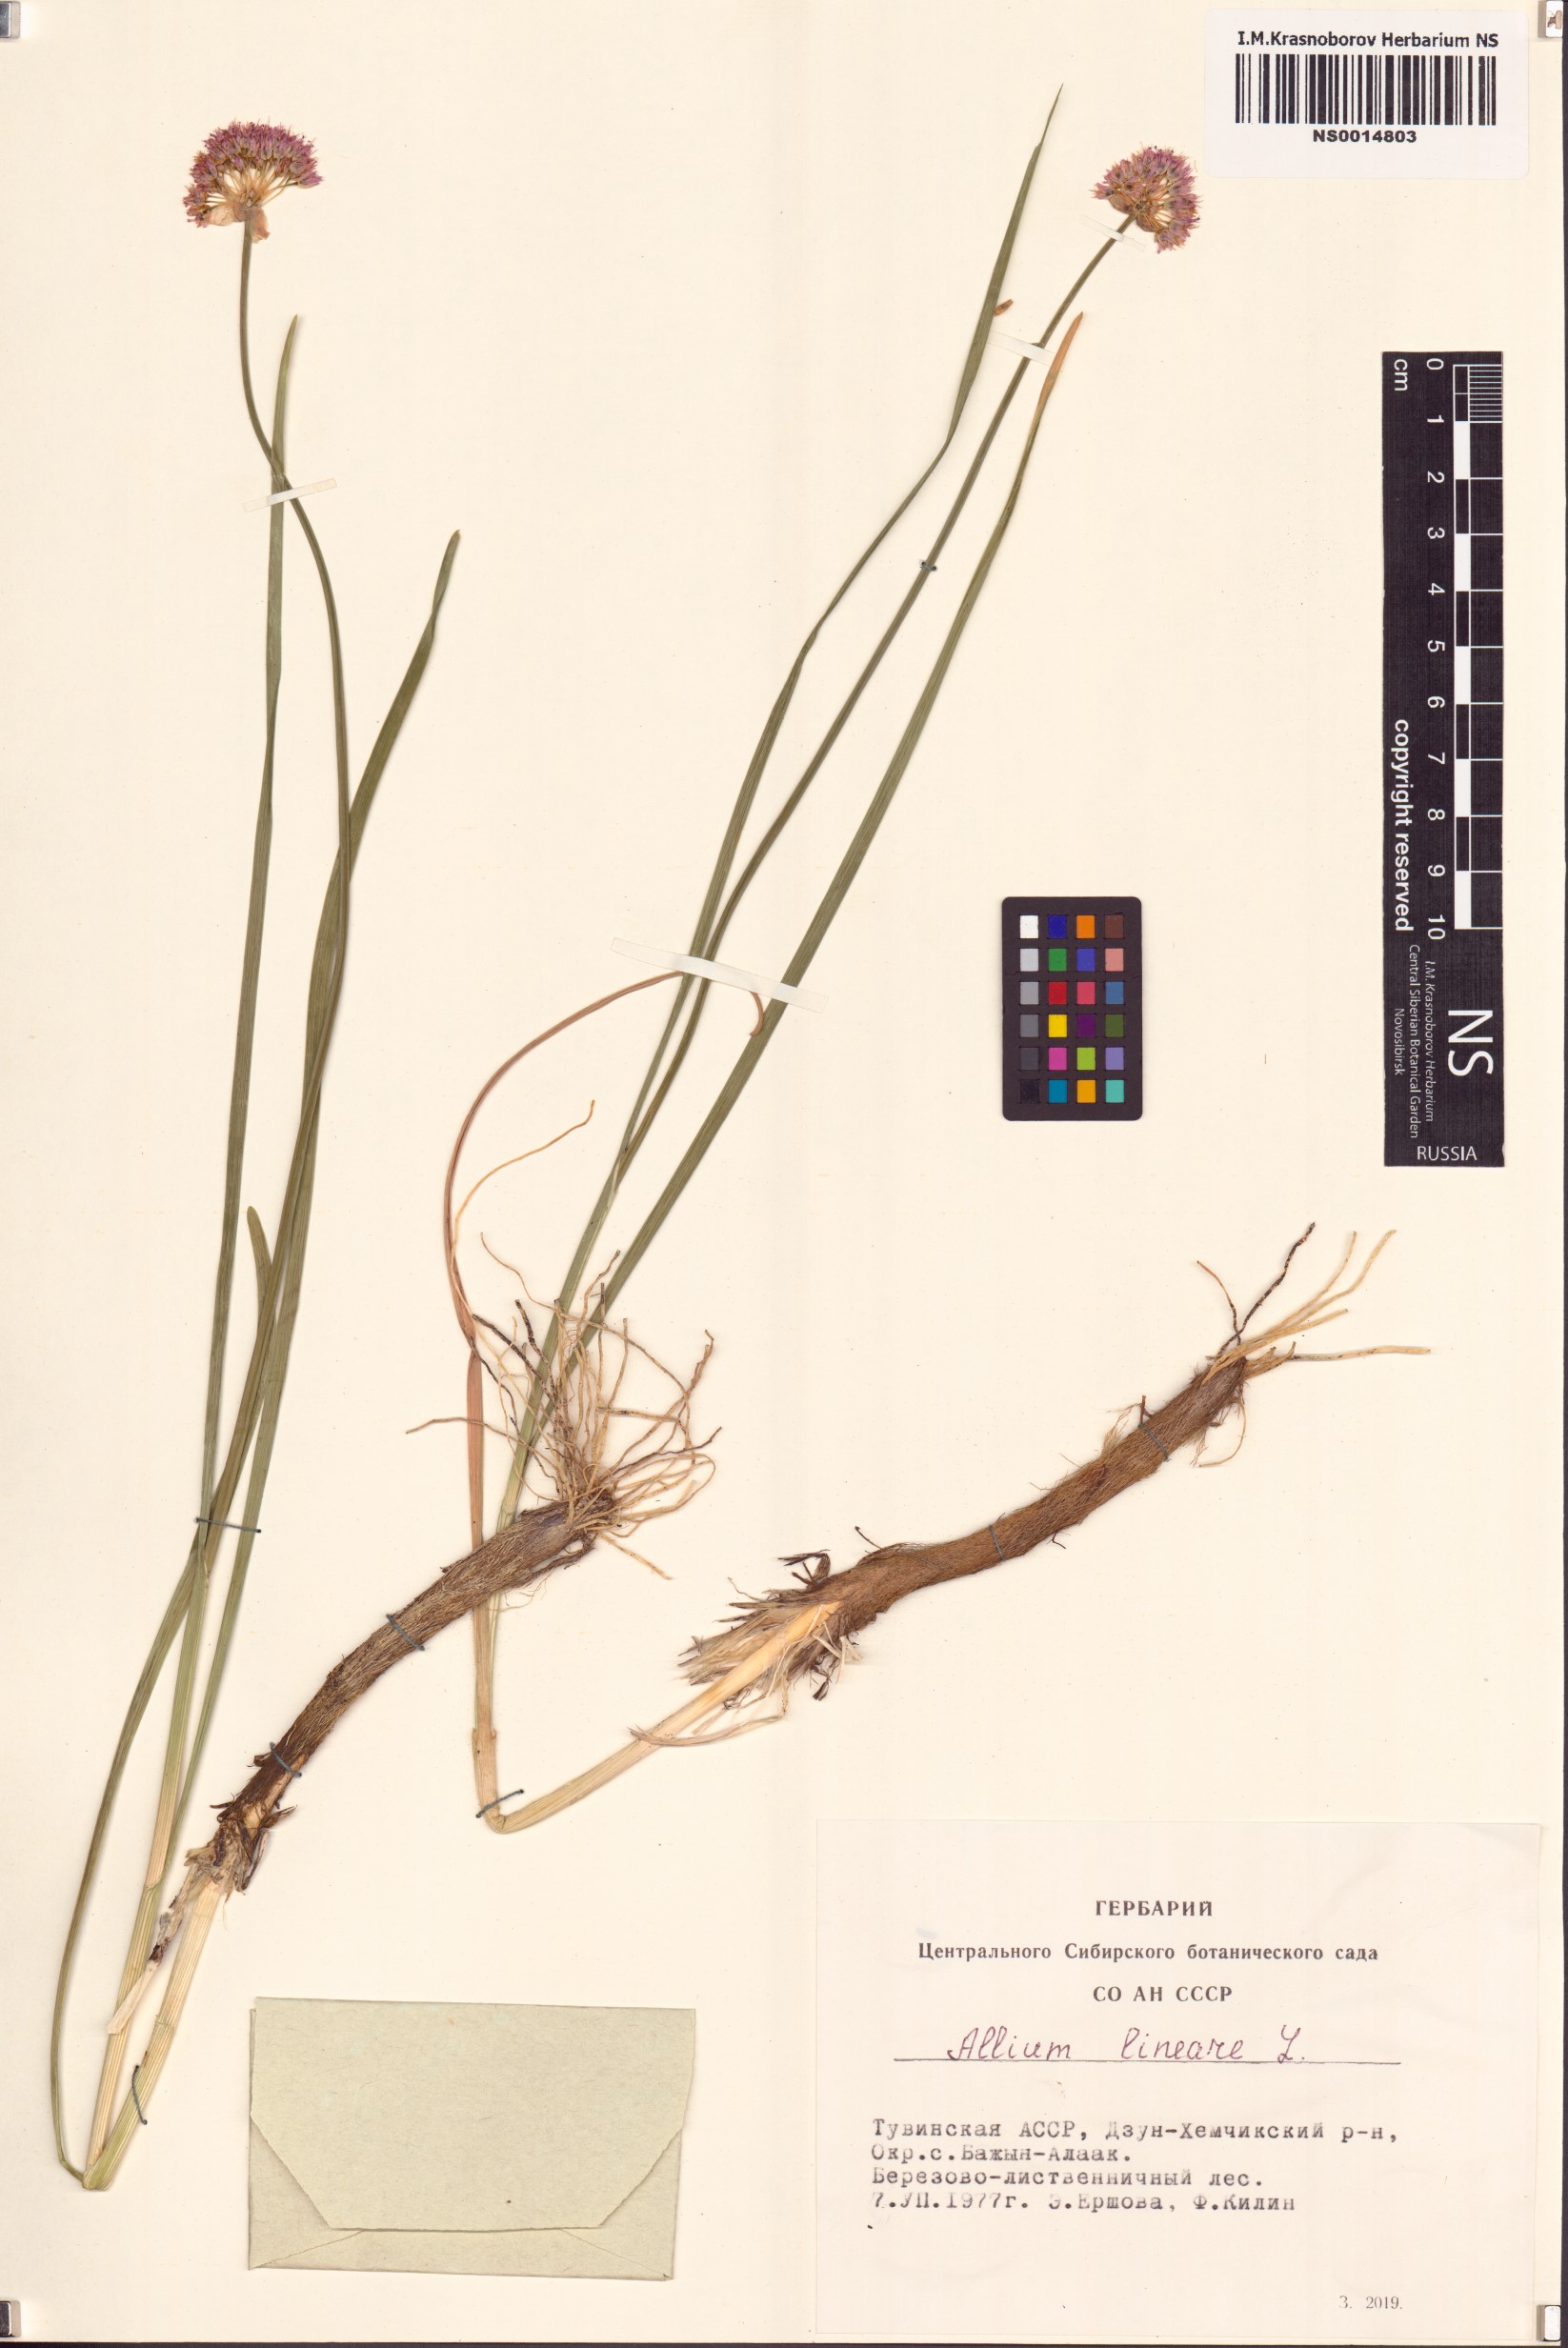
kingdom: Plantae
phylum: Tracheophyta
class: Liliopsida
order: Asparagales
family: Amaryllidaceae
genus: Allium
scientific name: Allium lineare
